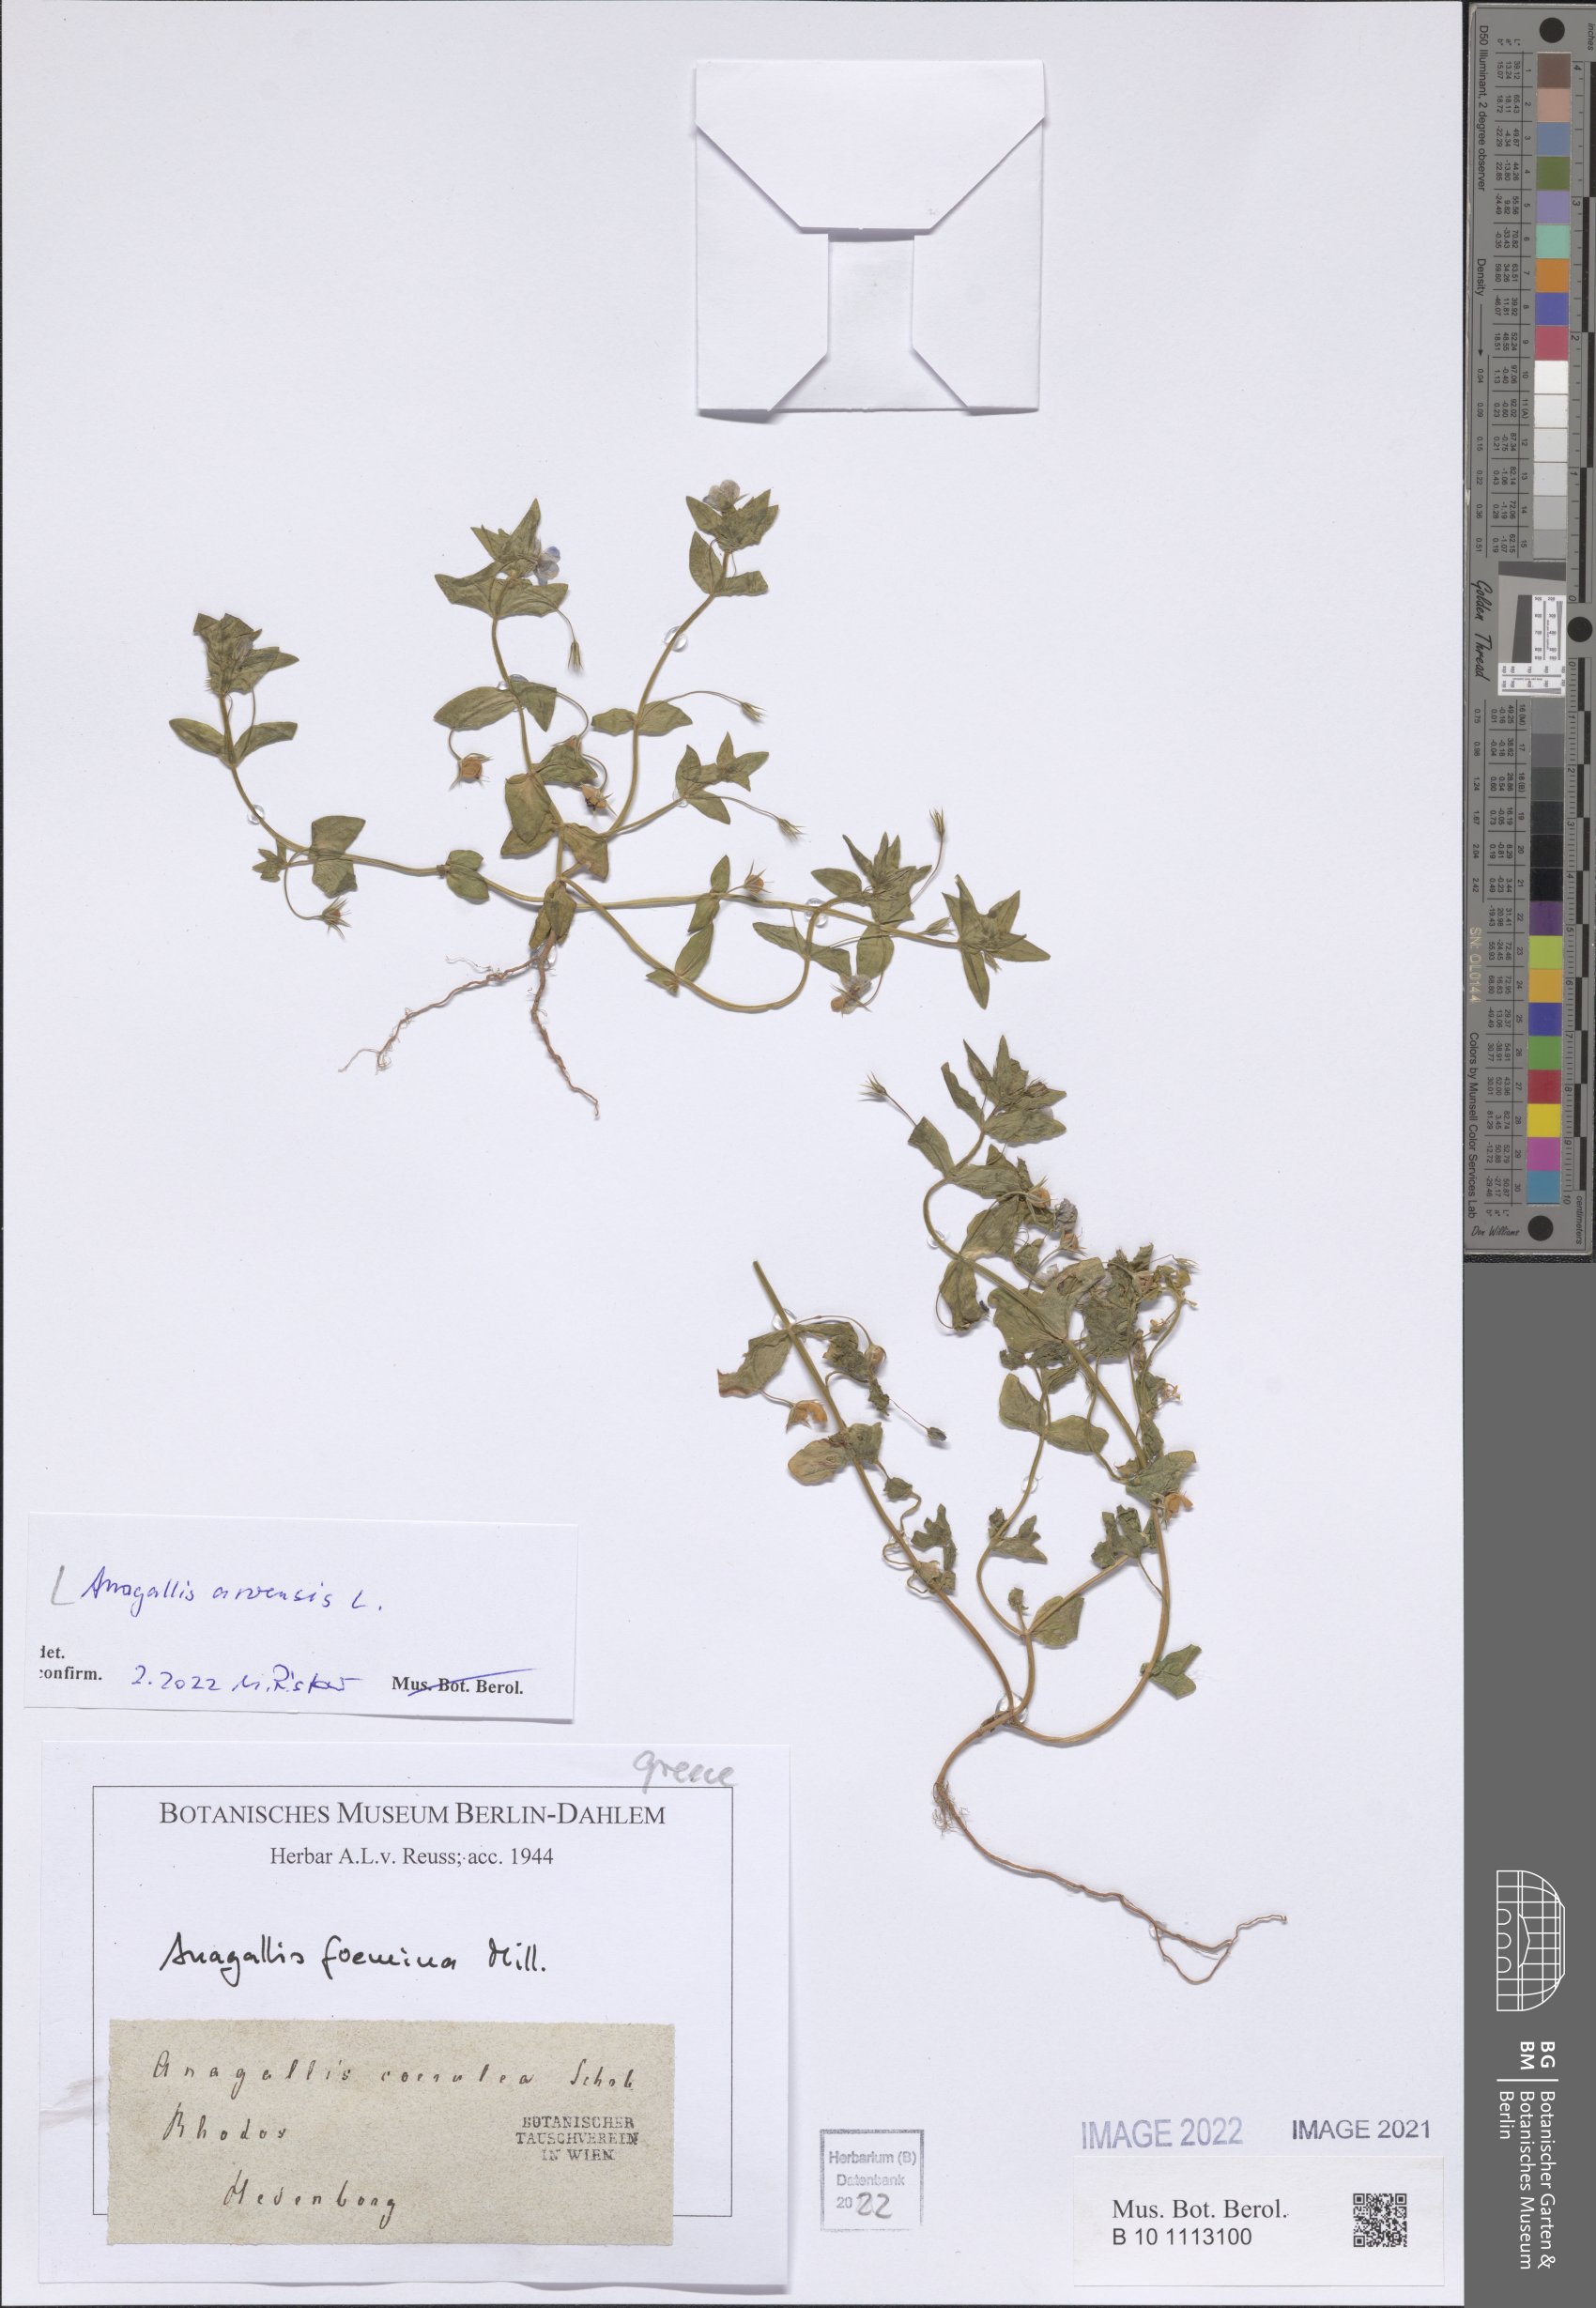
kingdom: Plantae
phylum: Tracheophyta
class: Magnoliopsida
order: Ericales
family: Primulaceae
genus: Lysimachia
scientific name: Lysimachia arvensis
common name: Scarlet pimpernel
